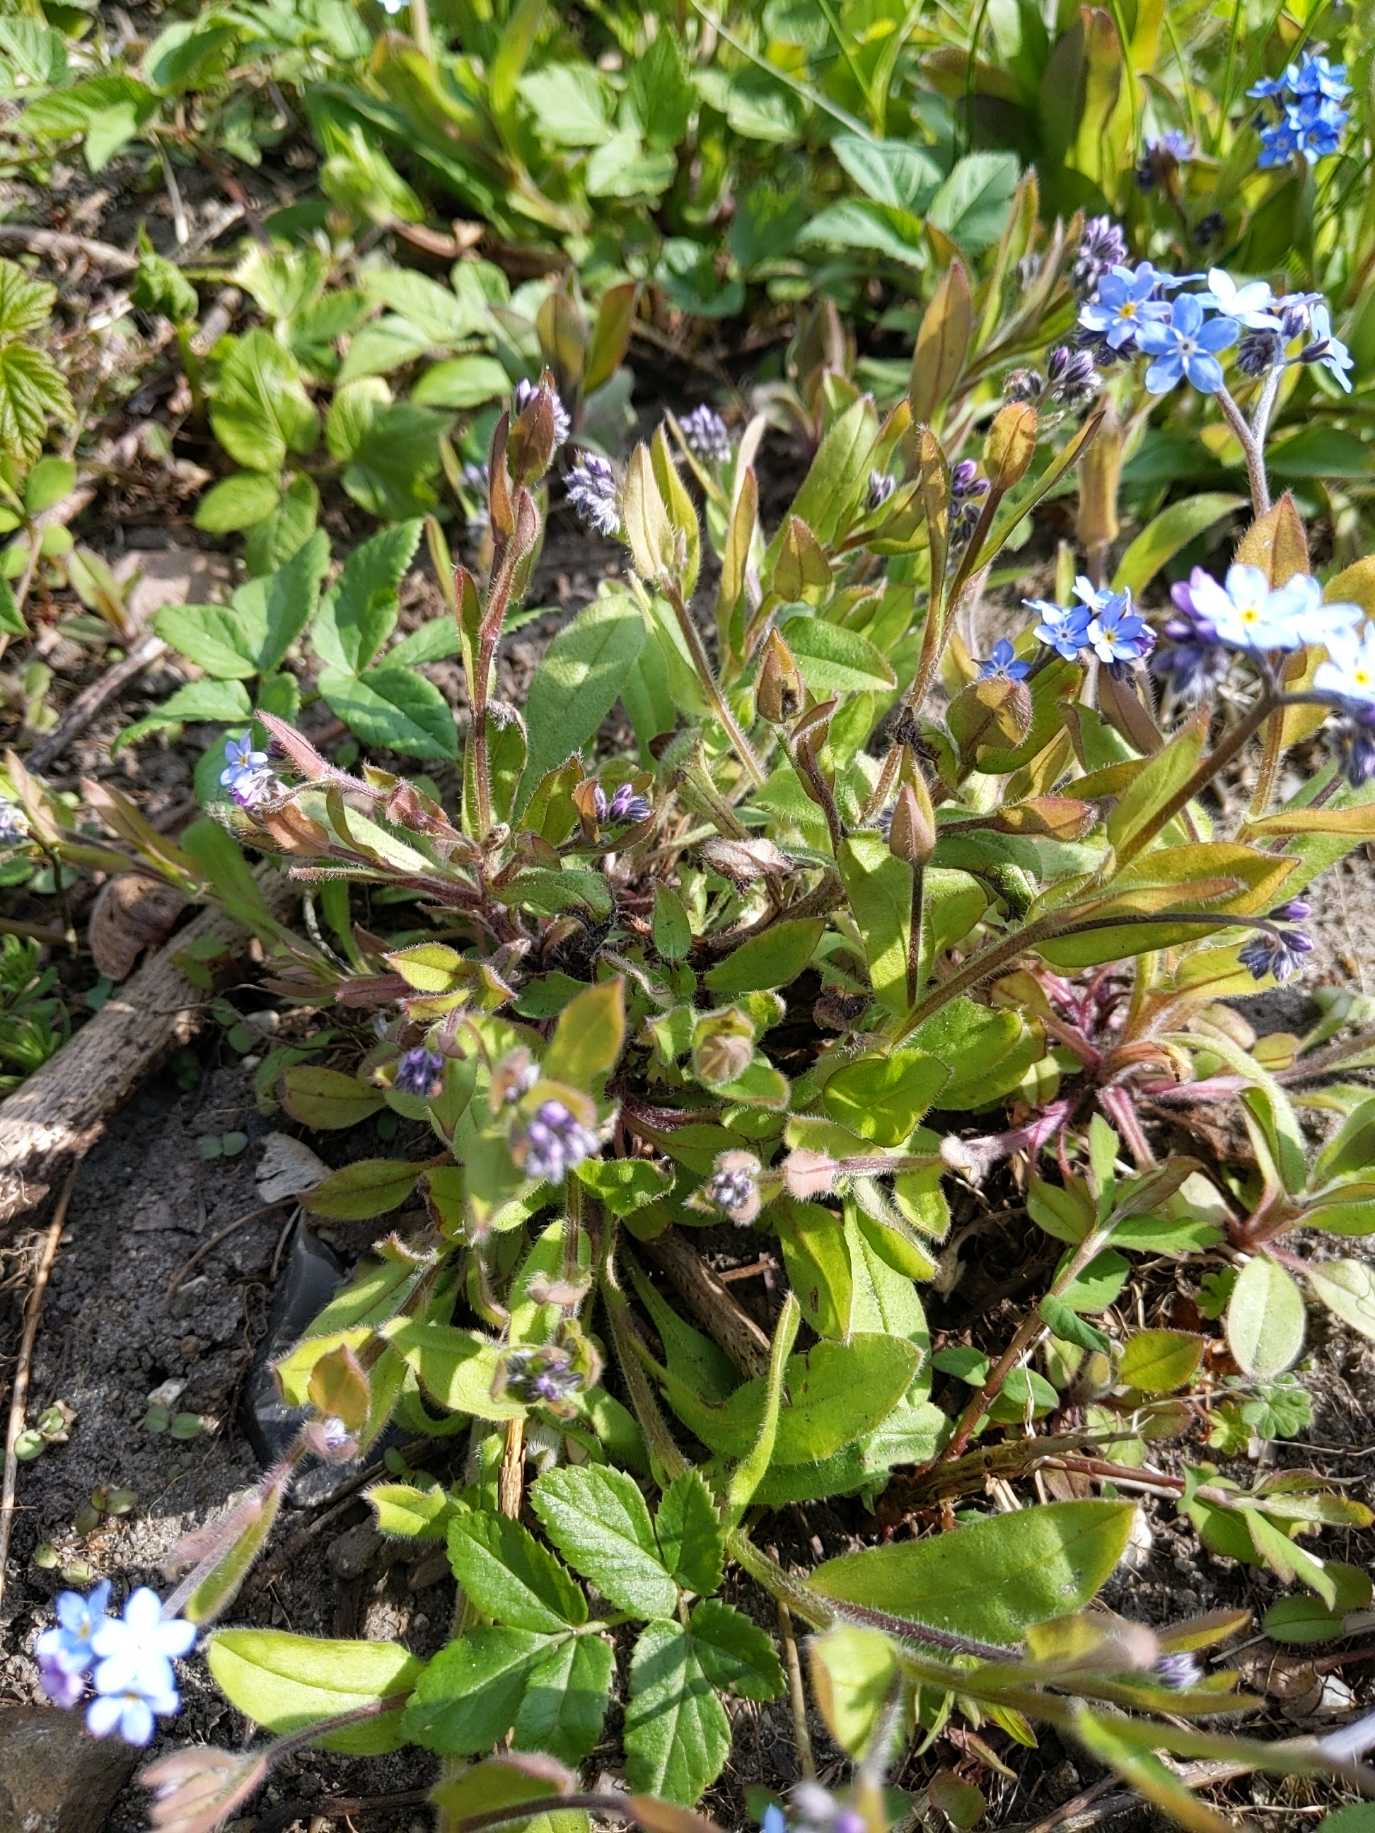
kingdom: Plantae
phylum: Tracheophyta
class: Magnoliopsida
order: Boraginales
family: Boraginaceae
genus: Myosotis
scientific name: Myosotis sylvatica
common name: Skov-forglemmigej
